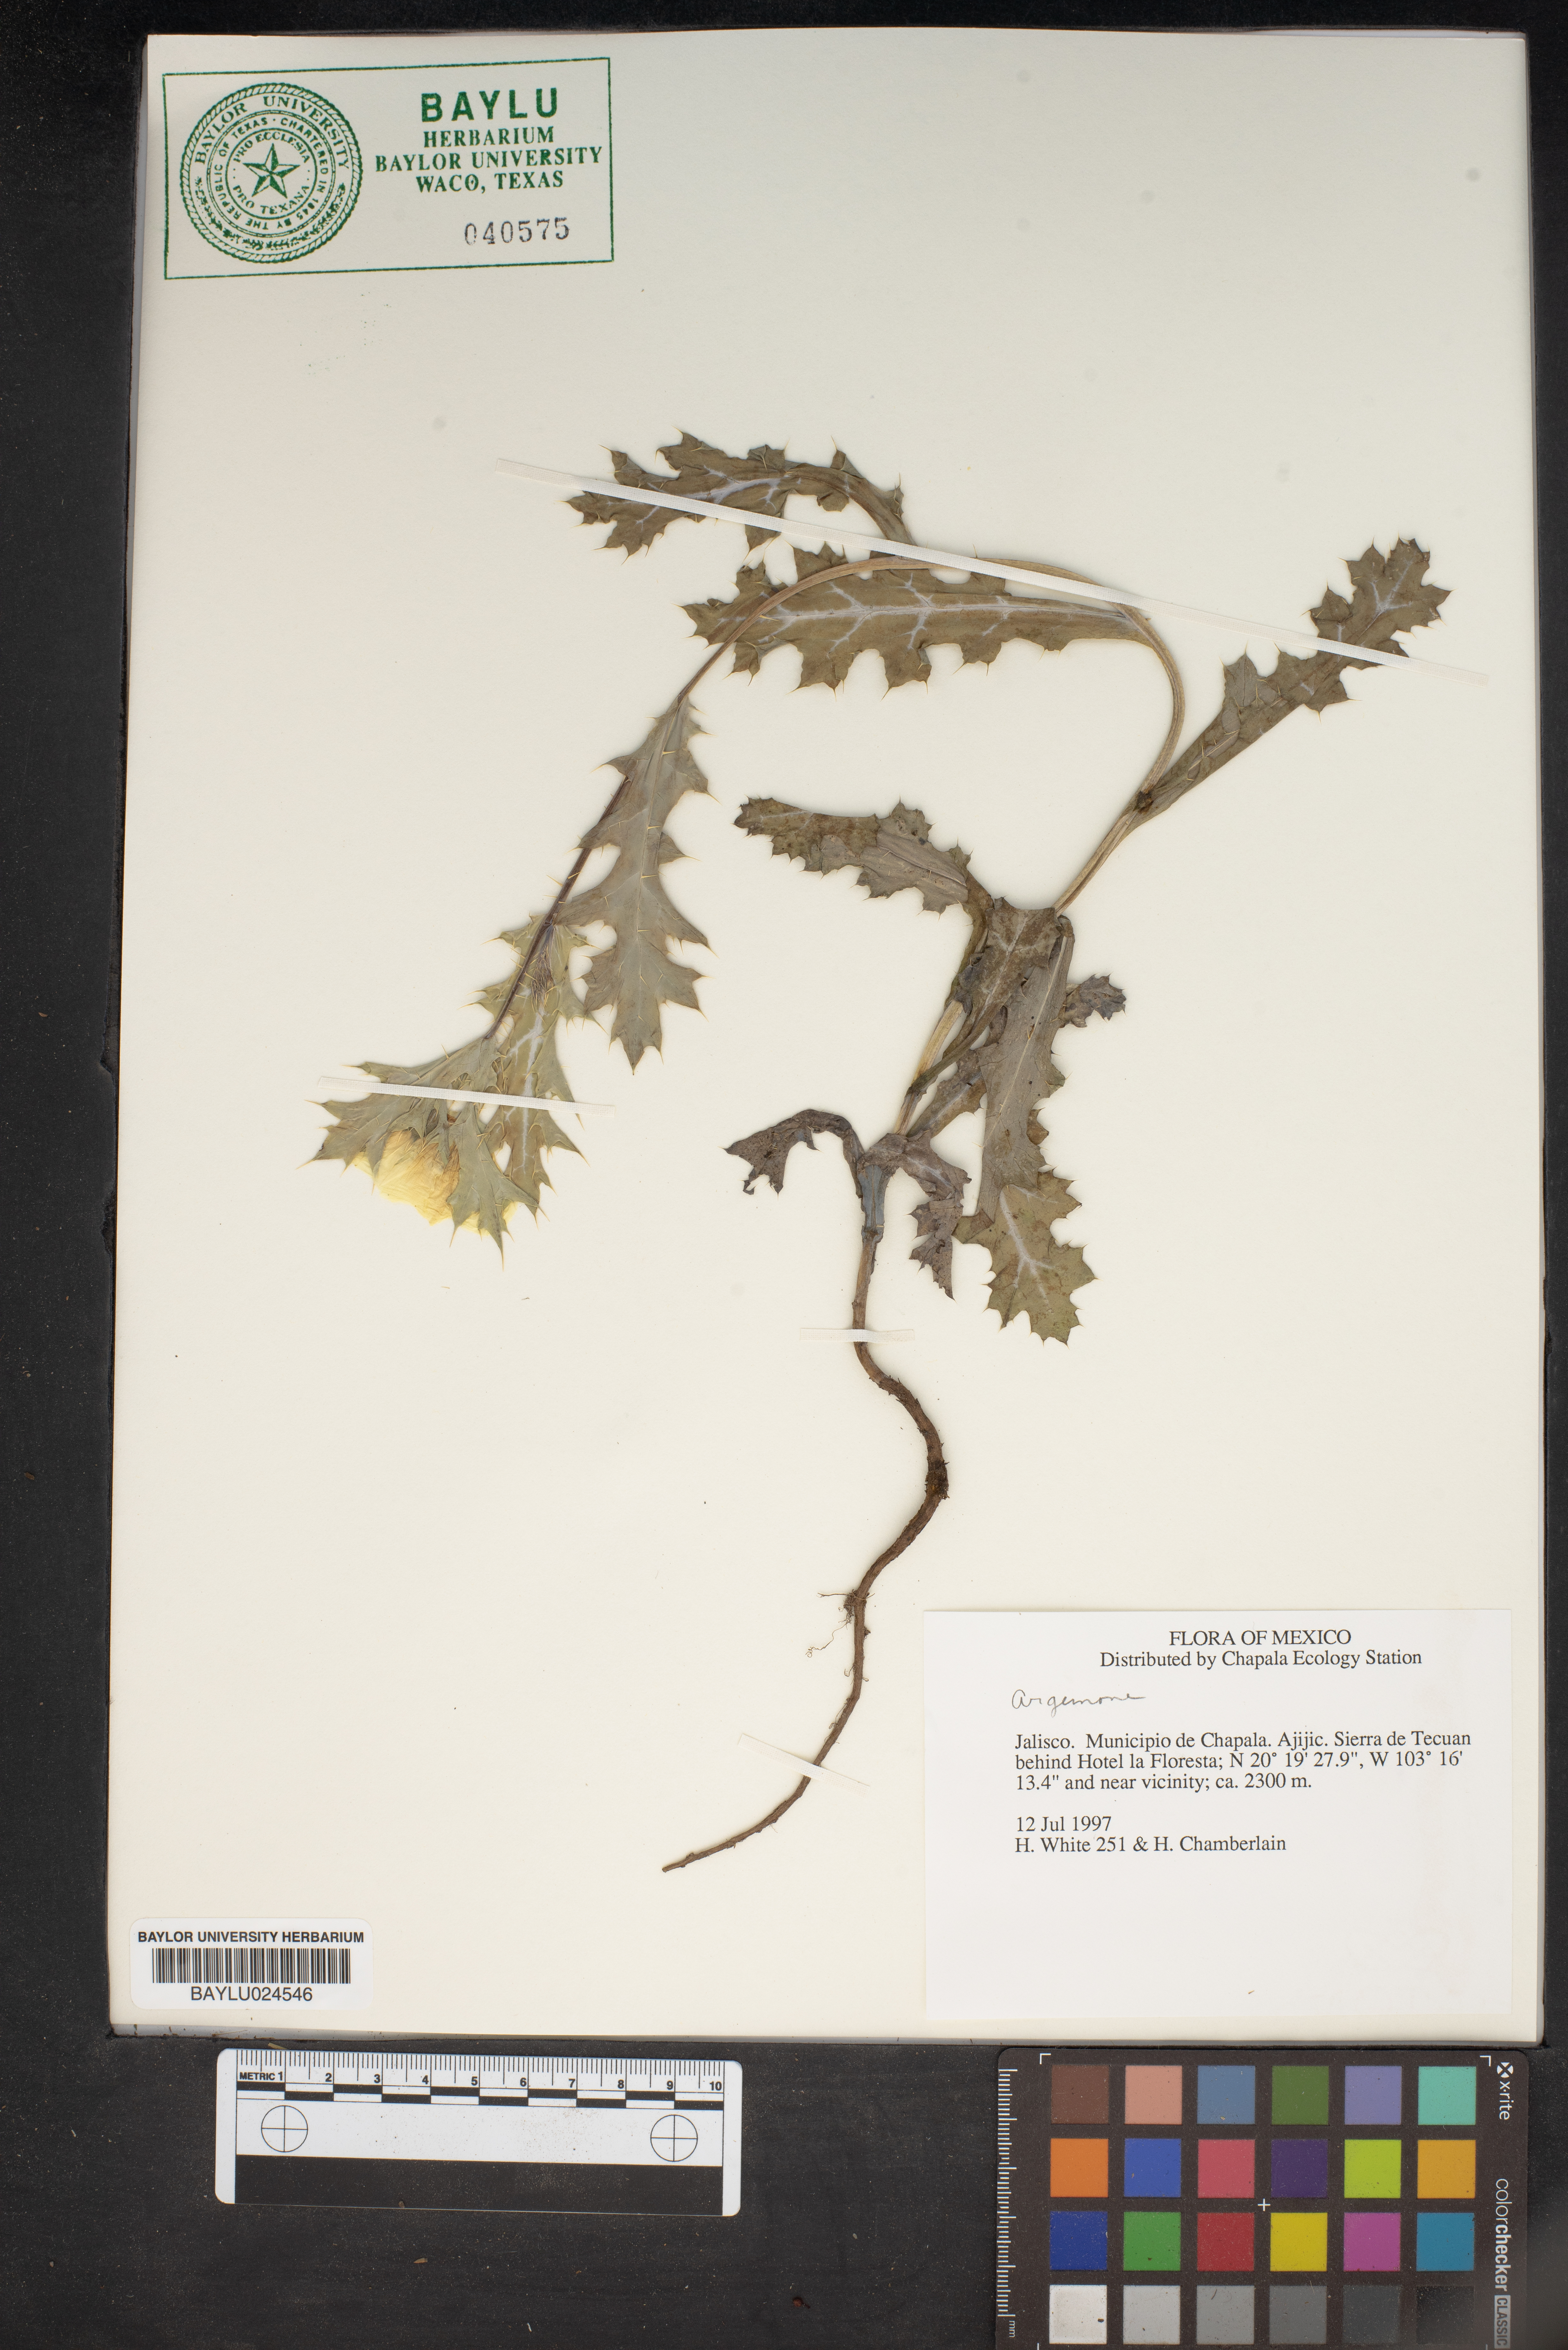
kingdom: Plantae
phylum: Tracheophyta
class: Magnoliopsida
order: Ranunculales
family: Papaveraceae
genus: Argemone
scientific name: Argemone
